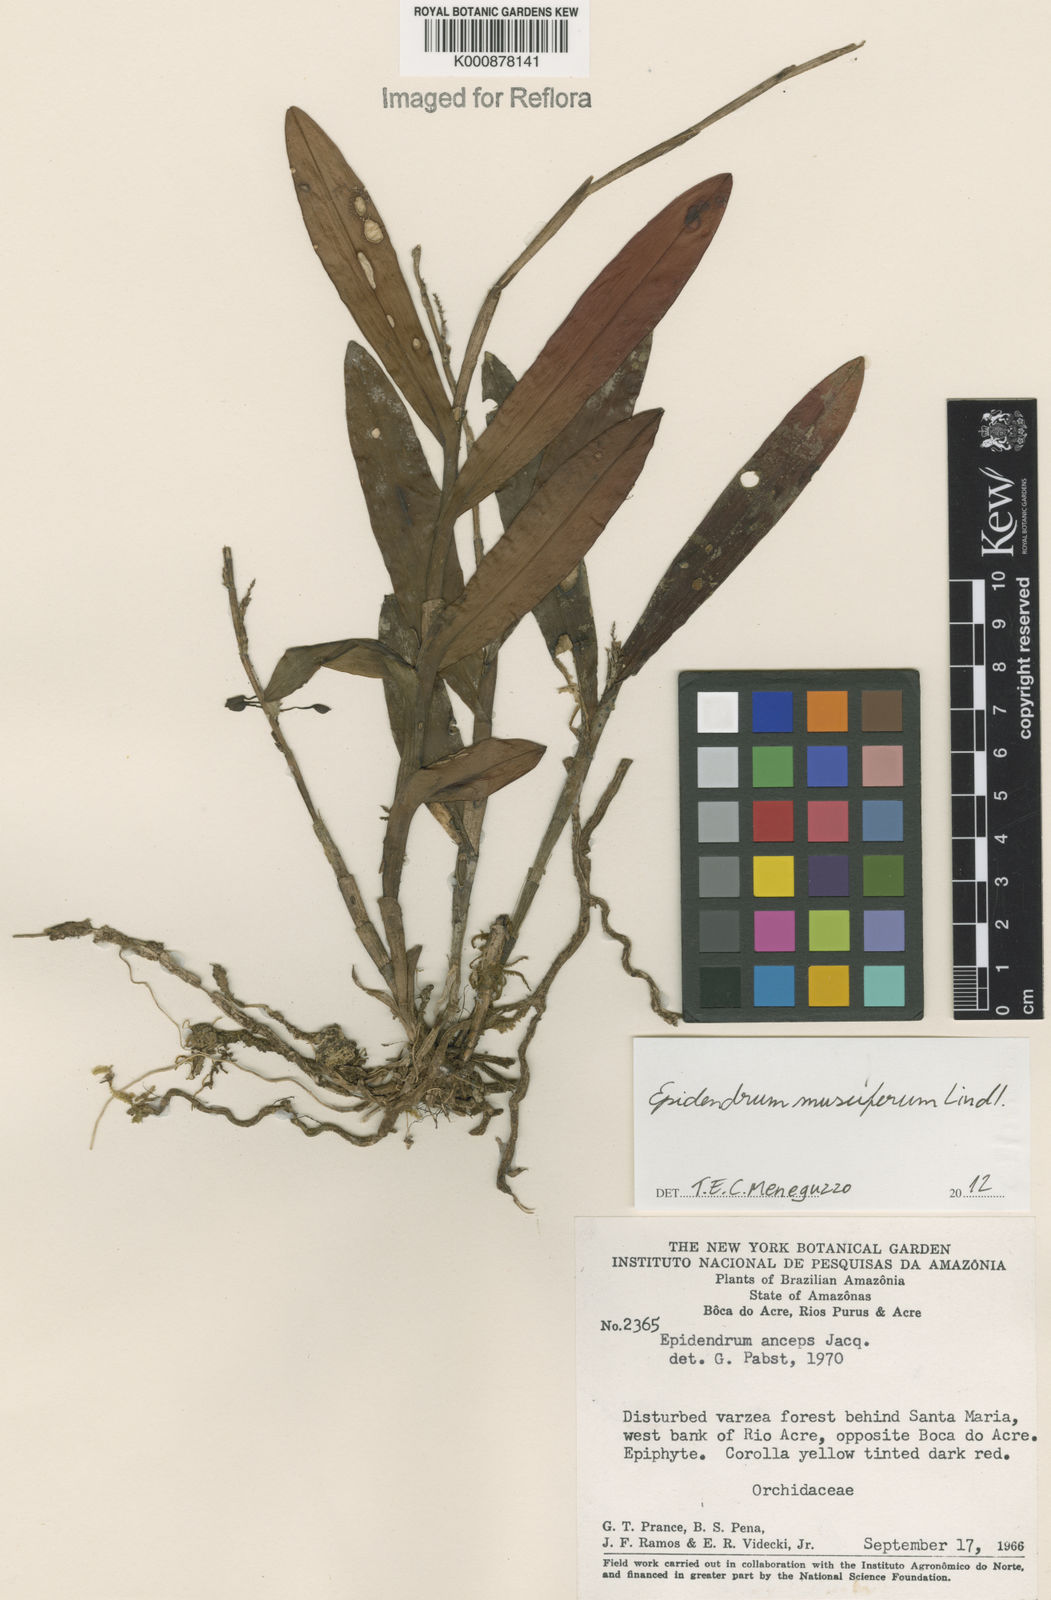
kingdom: Plantae
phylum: Tracheophyta
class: Liliopsida
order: Asparagales
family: Orchidaceae
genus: Epidendrum
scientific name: Epidendrum musciferum
